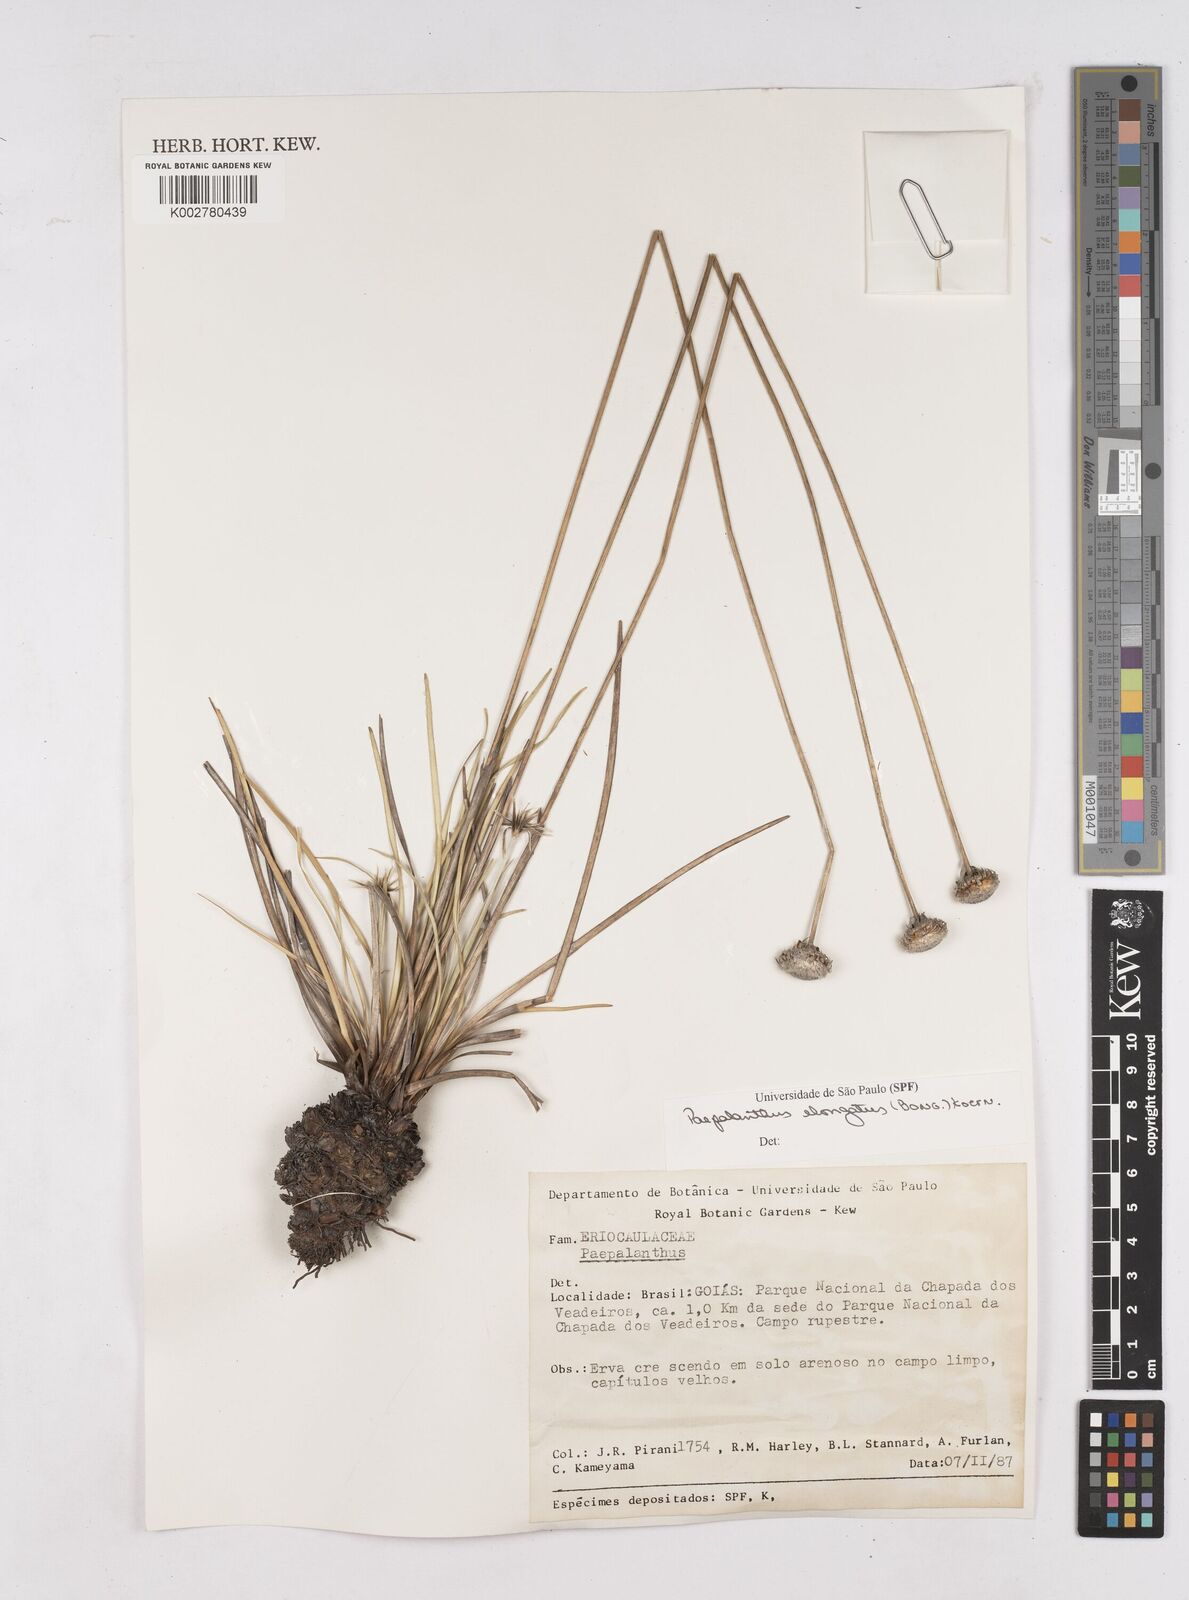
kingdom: Plantae
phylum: Tracheophyta
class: Liliopsida
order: Poales
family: Eriocaulaceae
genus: Paepalanthus
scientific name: Paepalanthus elongatus
